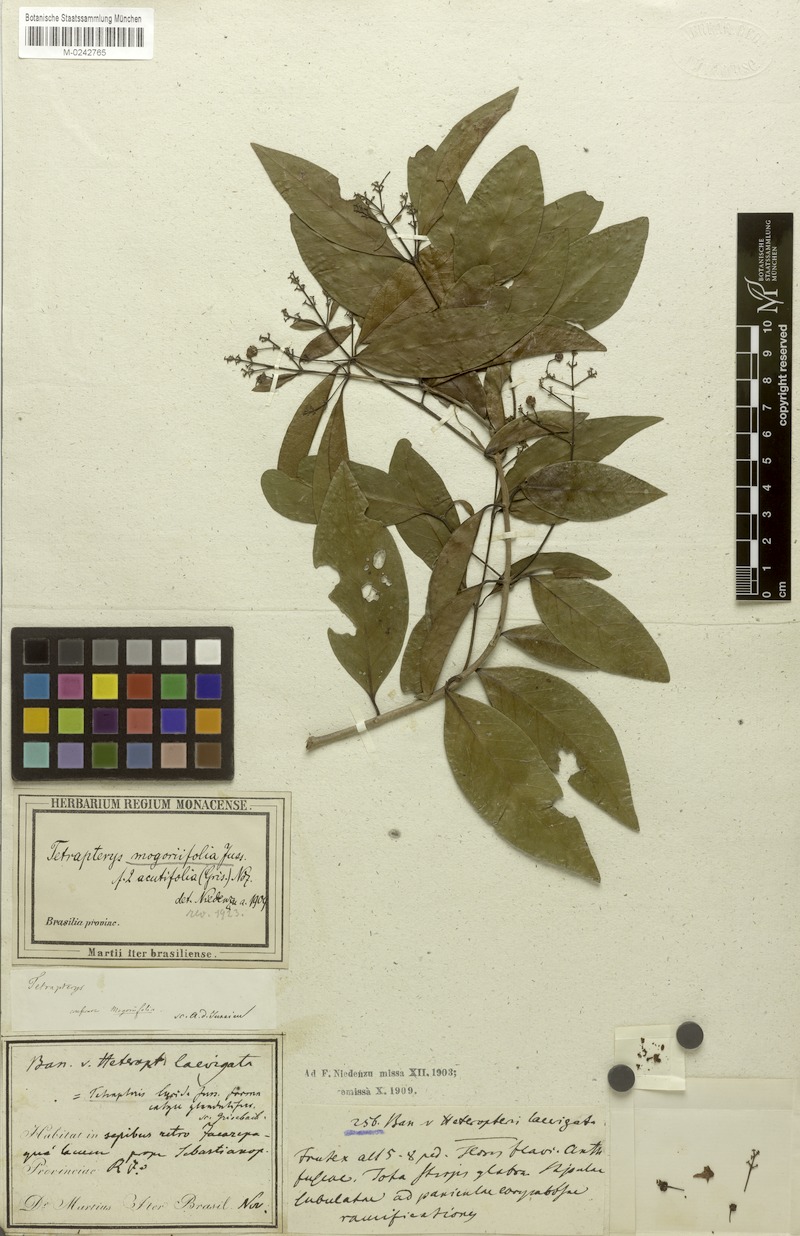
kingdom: Plantae
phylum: Tracheophyta
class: Magnoliopsida
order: Malpighiales
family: Malpighiaceae
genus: Niedenzuella
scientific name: Niedenzuella mogoriifolia
